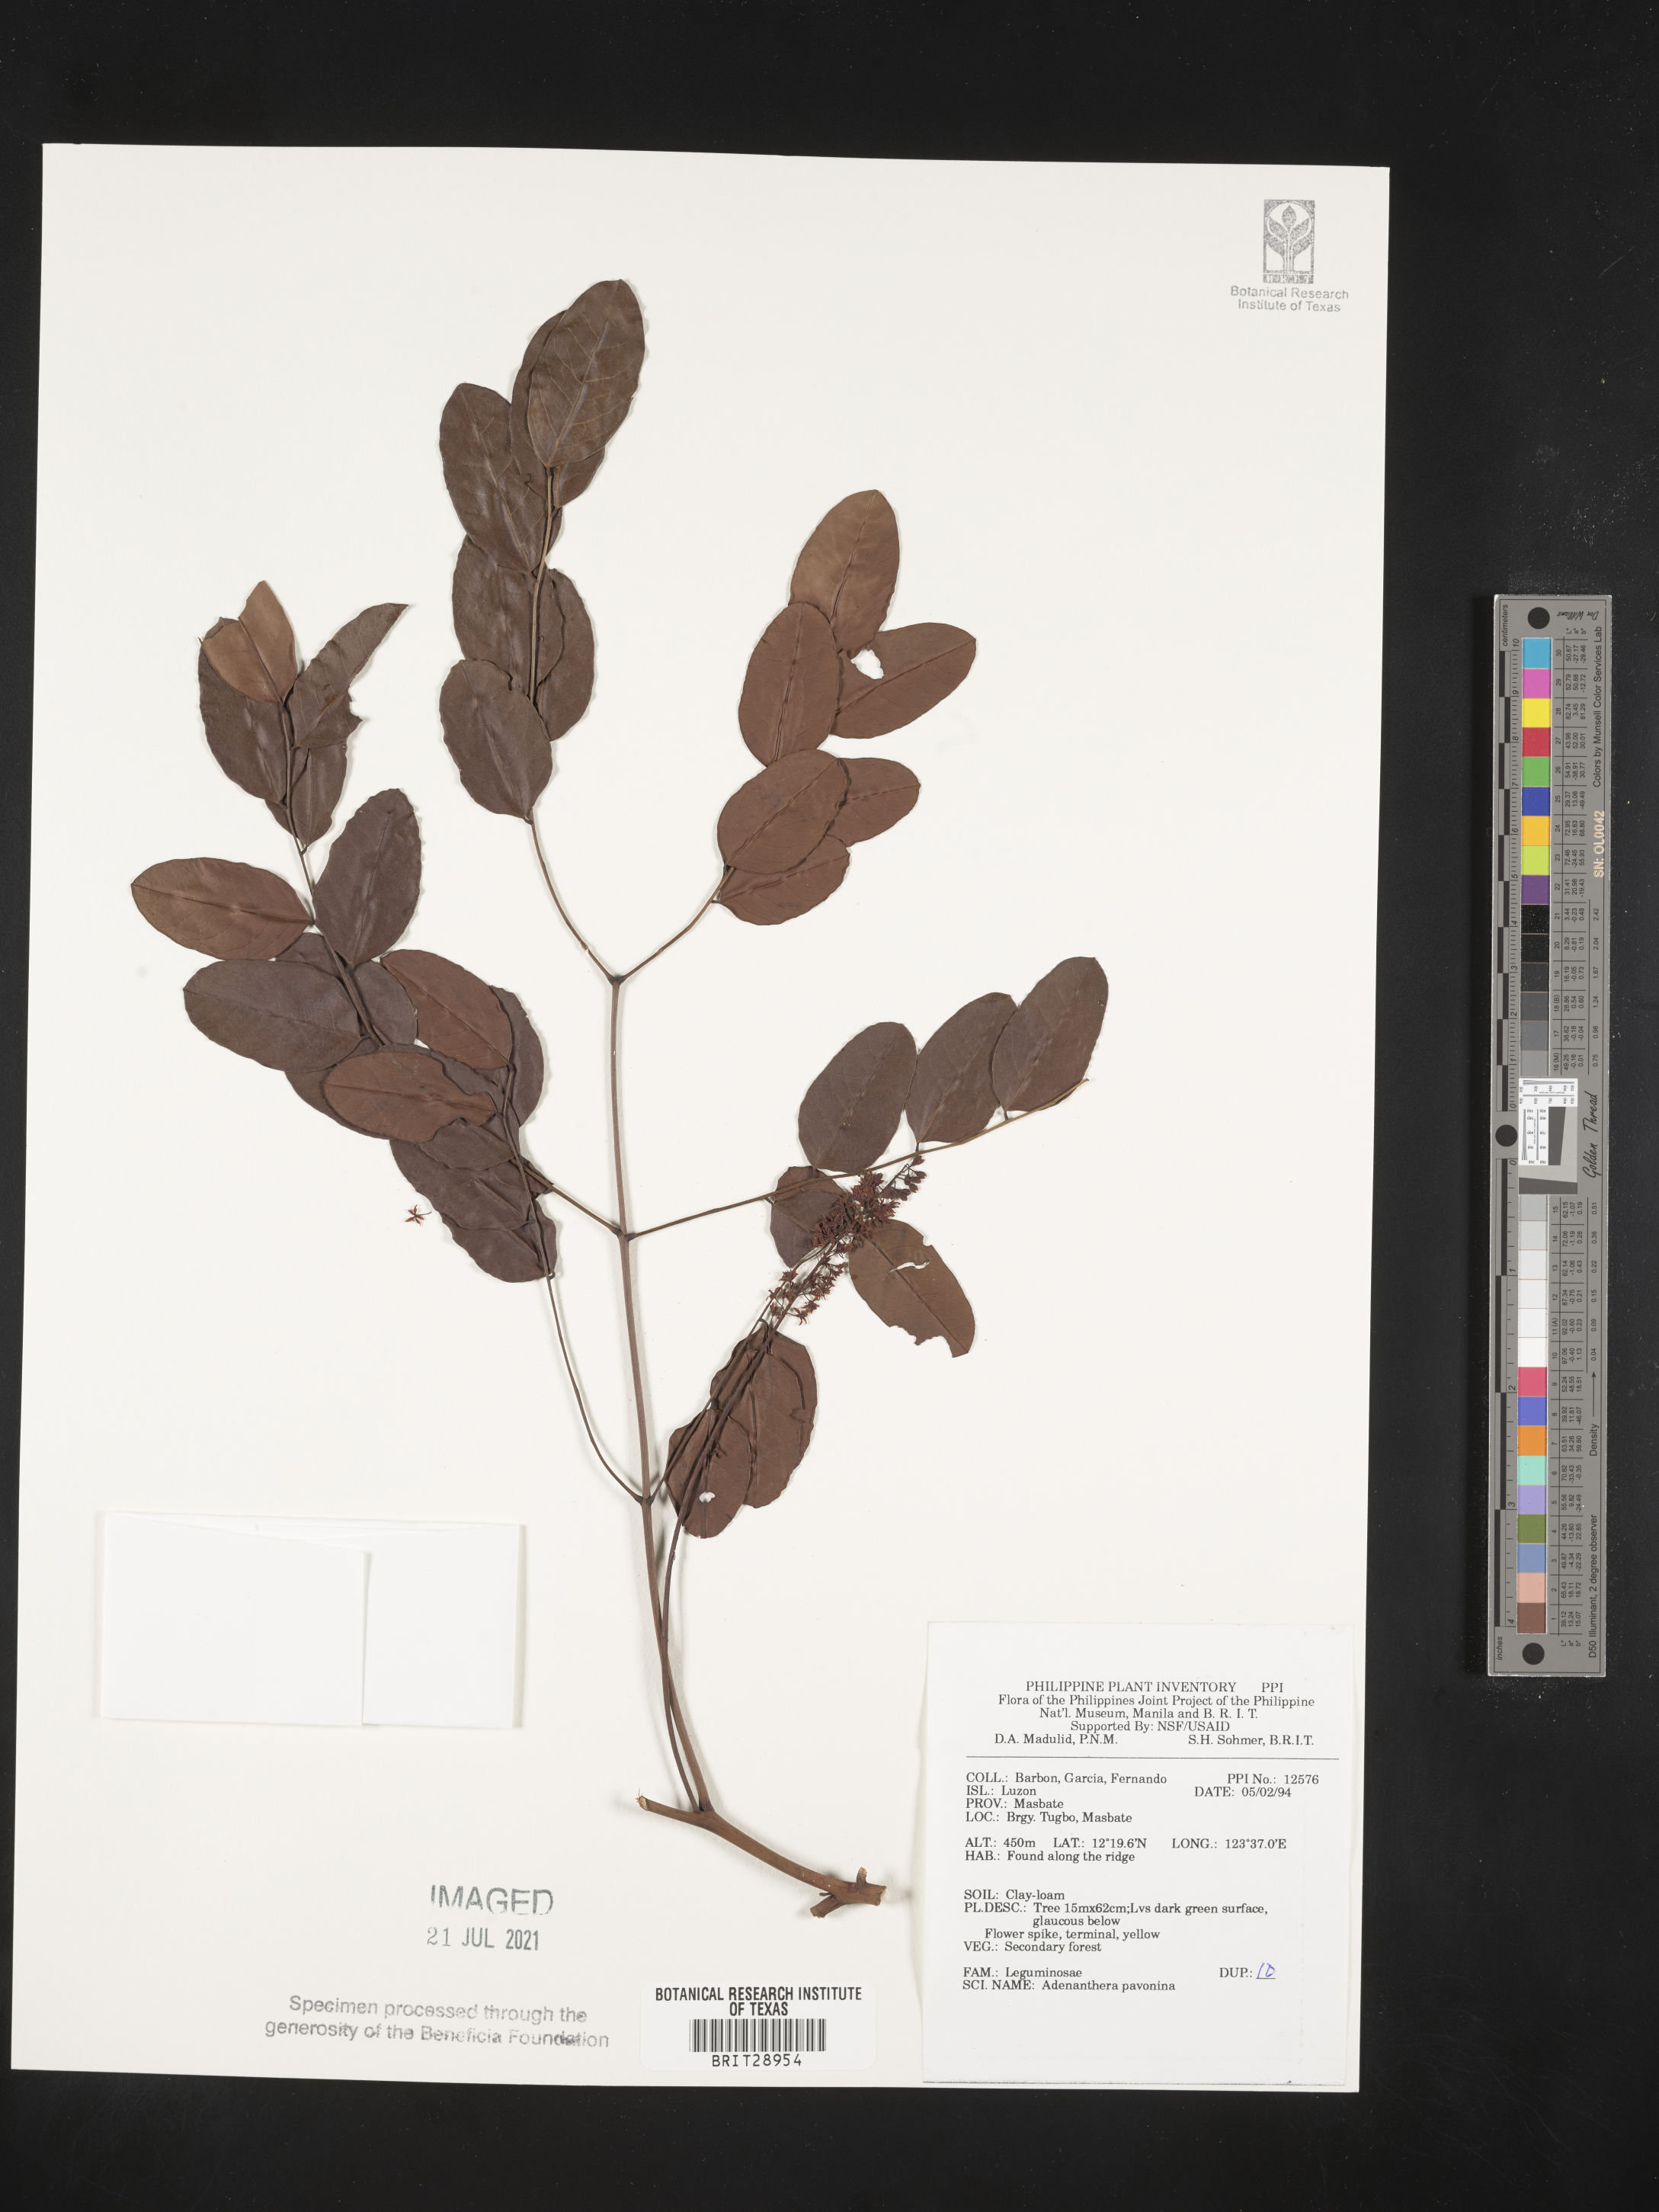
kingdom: Plantae
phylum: Tracheophyta
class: Magnoliopsida
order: Fabales
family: Fabaceae
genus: Adenanthera
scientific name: Adenanthera pavonina
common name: Red beadtree
